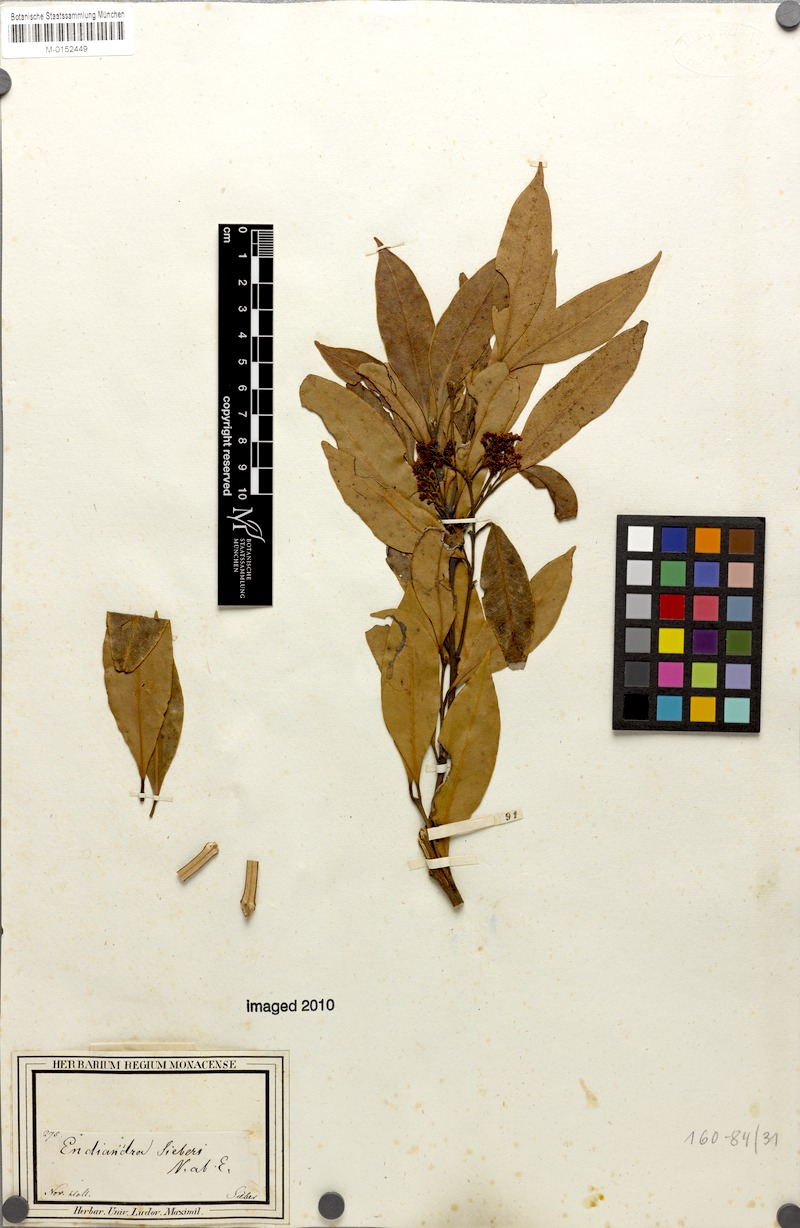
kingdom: Plantae
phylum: Tracheophyta
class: Magnoliopsida
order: Laurales
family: Lauraceae
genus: Endiandra
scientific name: Endiandra sieberi
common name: Corkwood
